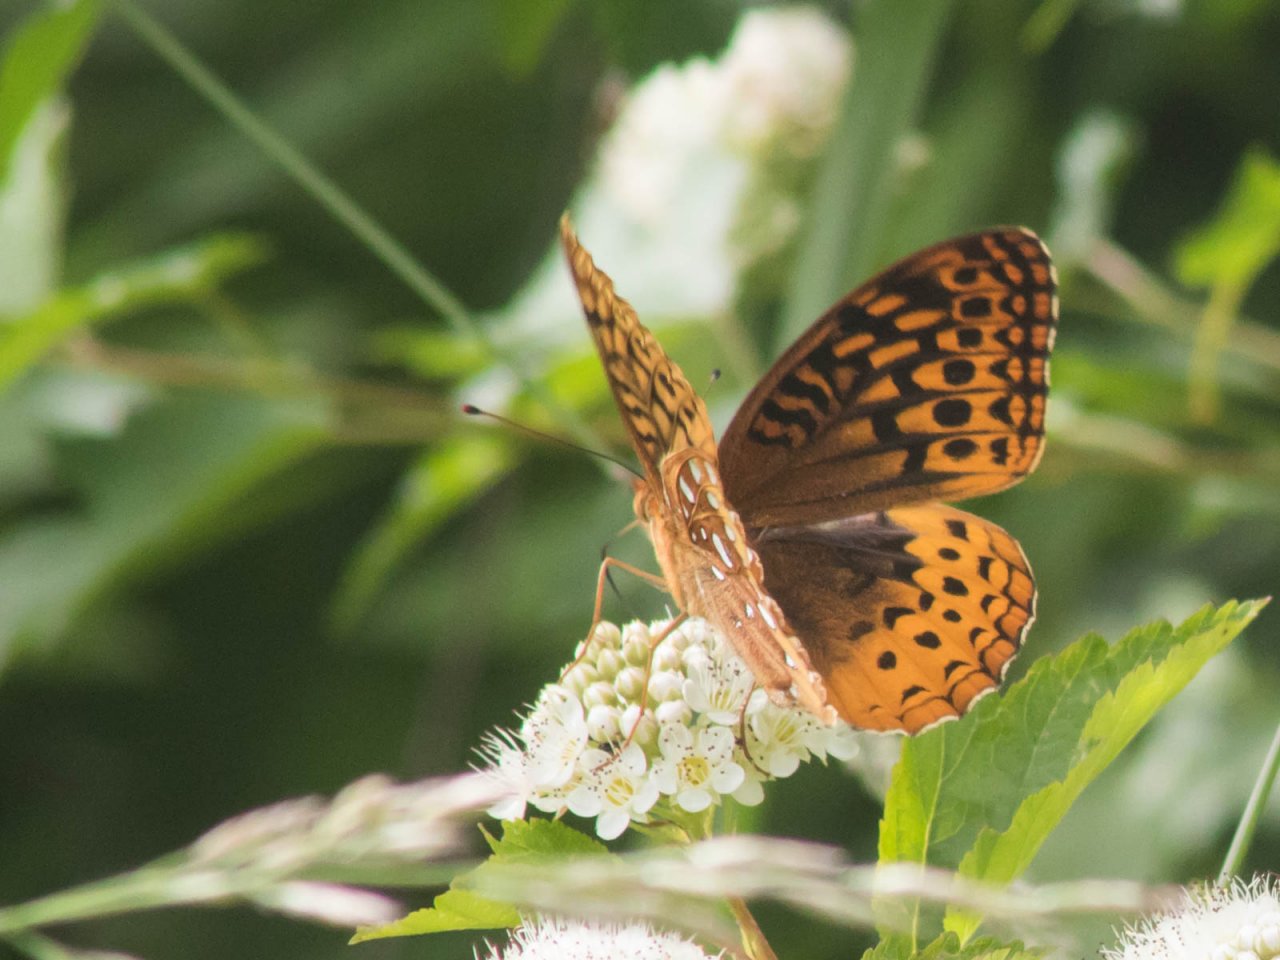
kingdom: Animalia
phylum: Arthropoda
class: Insecta
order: Lepidoptera
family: Nymphalidae
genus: Speyeria
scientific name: Speyeria cybele
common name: Great Spangled Fritillary
